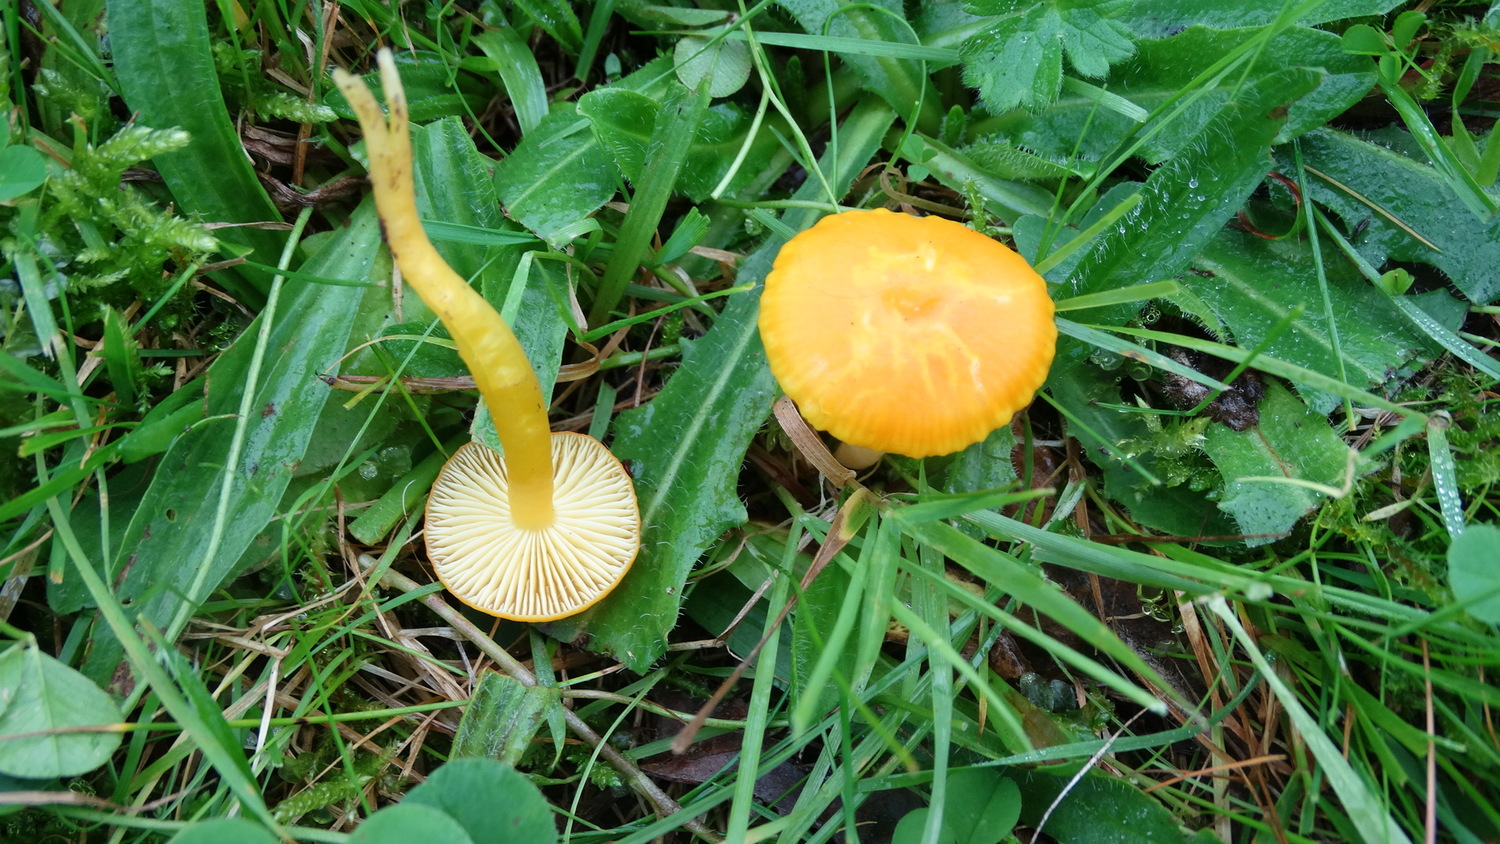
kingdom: Fungi
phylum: Basidiomycota
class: Agaricomycetes
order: Agaricales
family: Hygrophoraceae
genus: Hygrocybe
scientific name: Hygrocybe ceracea
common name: voksgul vokshat
